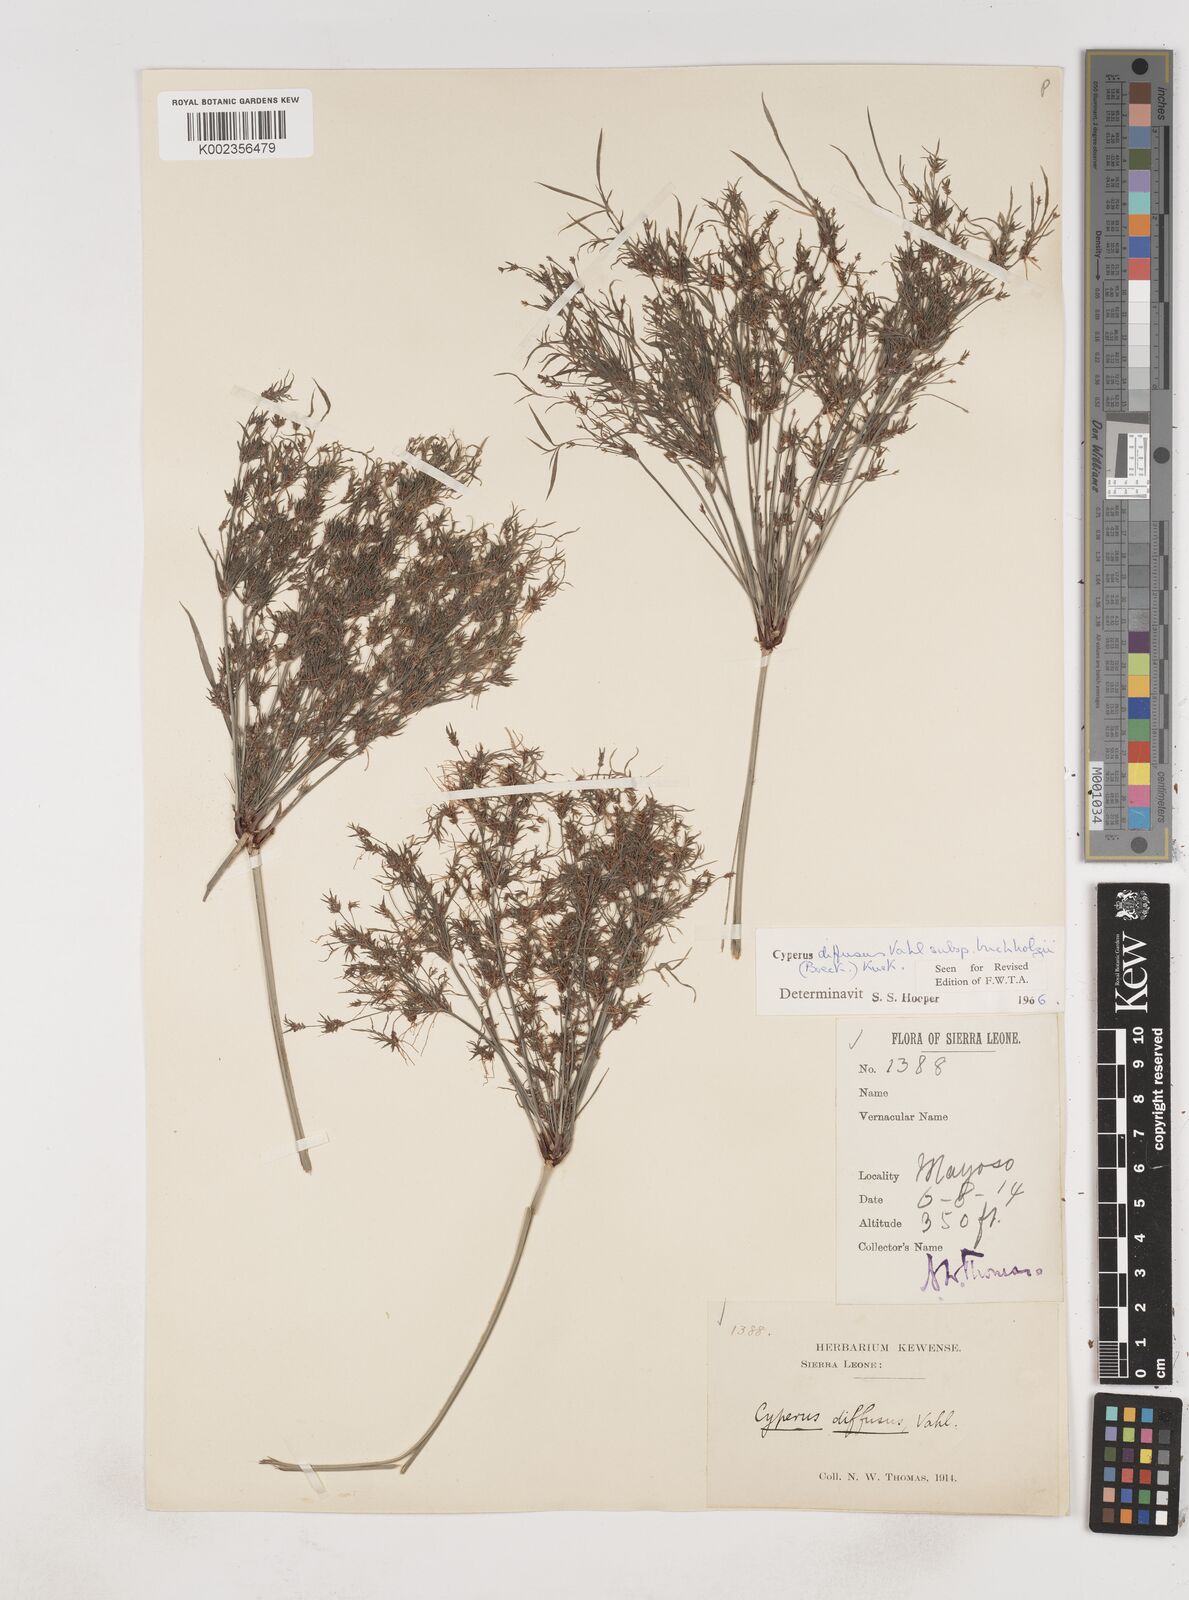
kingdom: Plantae
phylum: Tracheophyta
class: Liliopsida
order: Poales
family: Cyperaceae
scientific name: Cyperaceae
